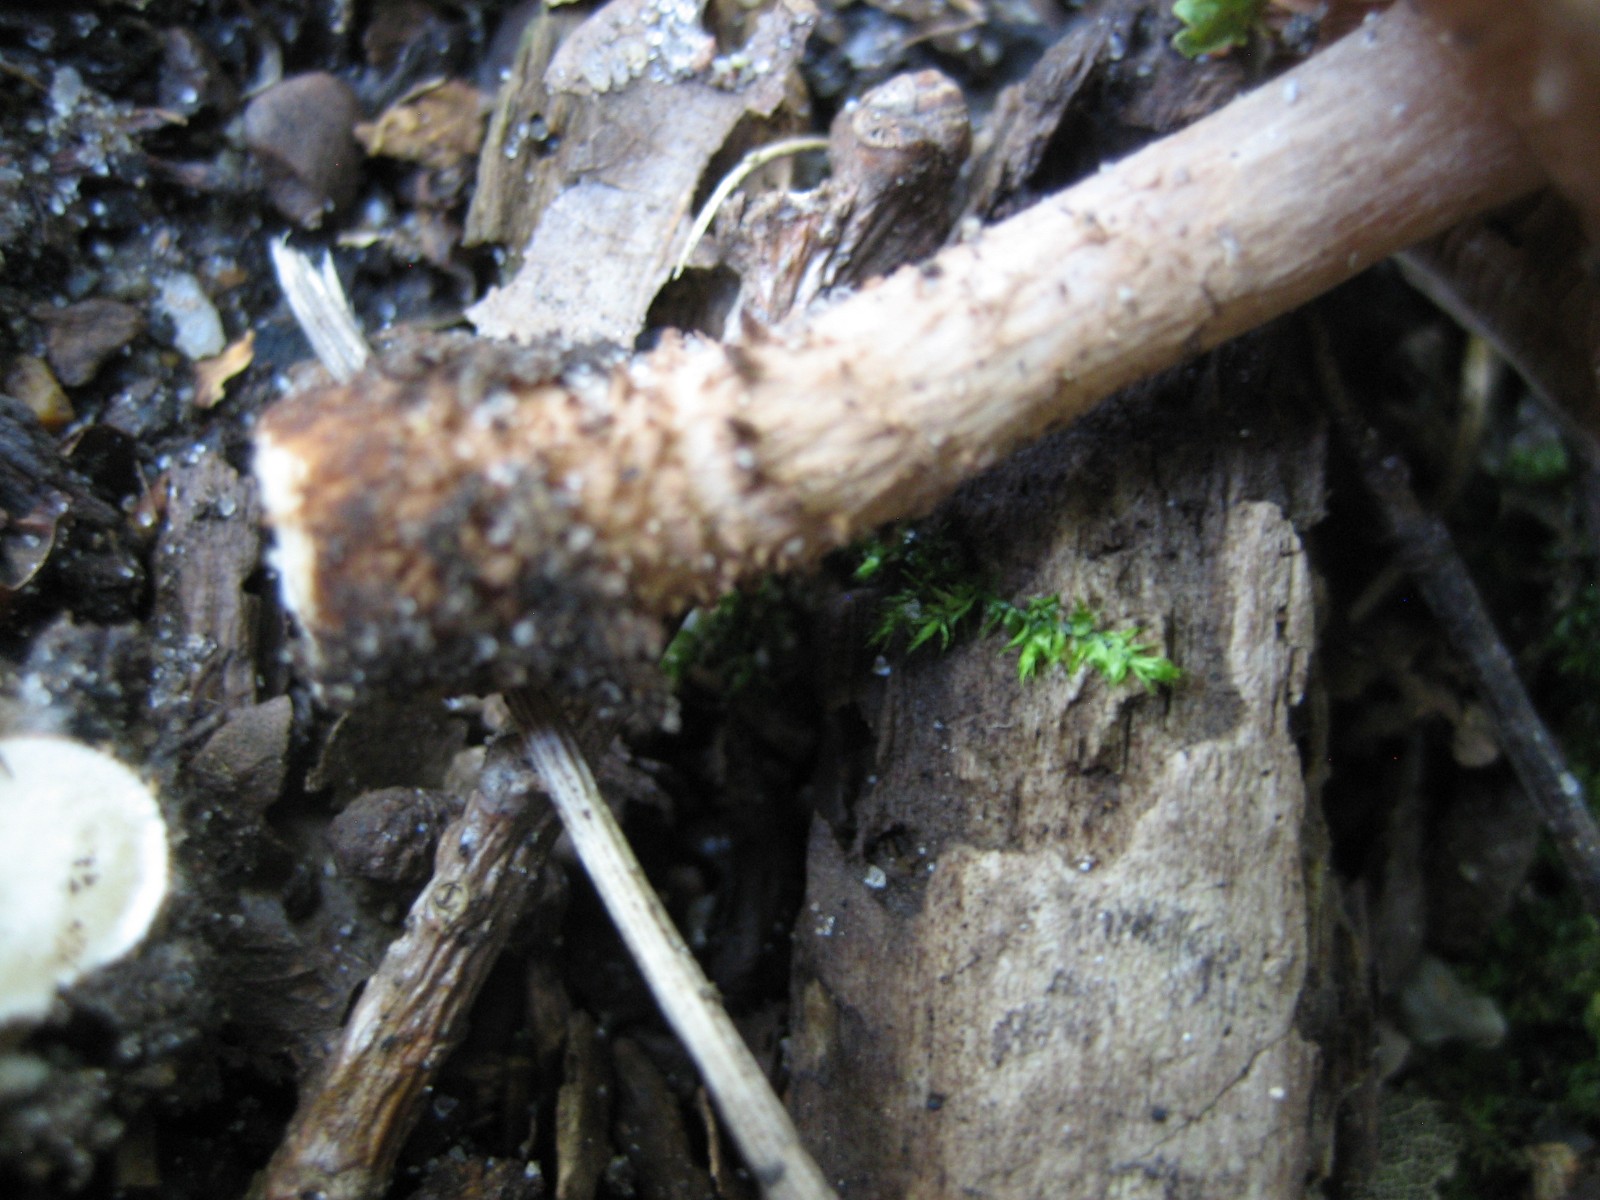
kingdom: Fungi
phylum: Basidiomycota
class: Agaricomycetes
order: Agaricales
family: Agaricaceae
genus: Echinoderma
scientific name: Echinoderma echinaceum
